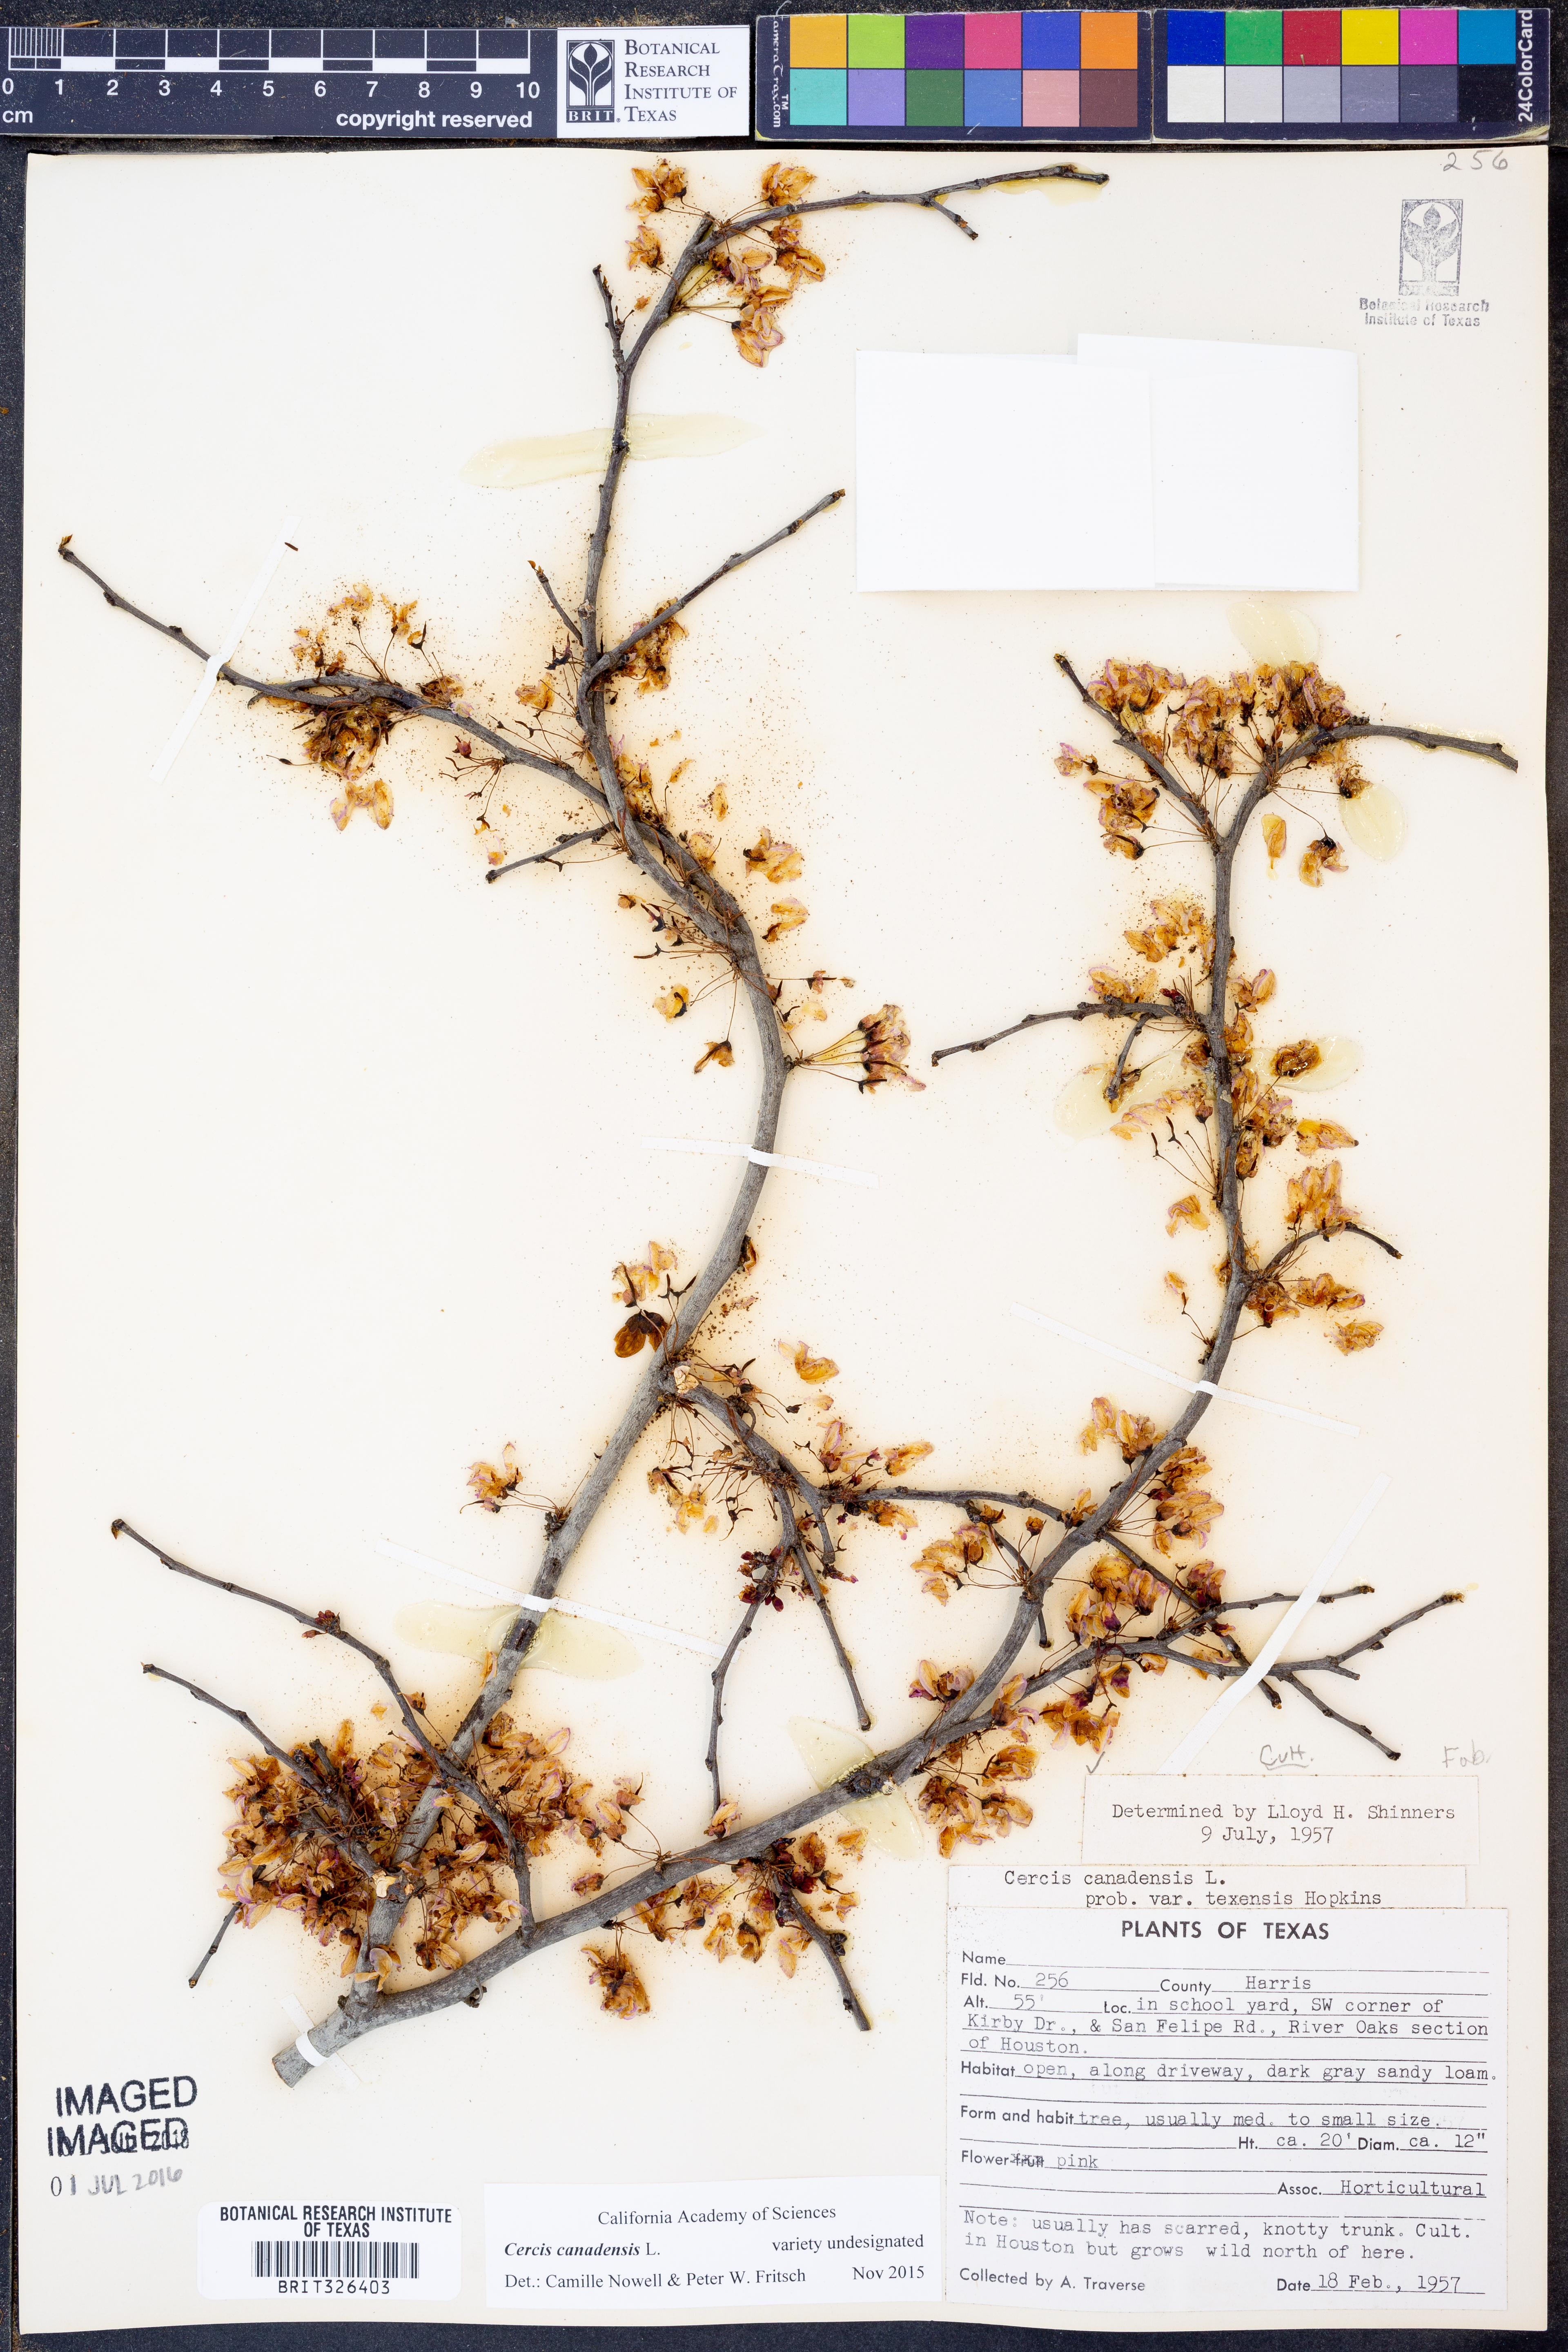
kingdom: Plantae
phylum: Tracheophyta
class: Magnoliopsida
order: Fabales
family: Fabaceae
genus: Cercis
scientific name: Cercis canadensis
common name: Eastern redbud
